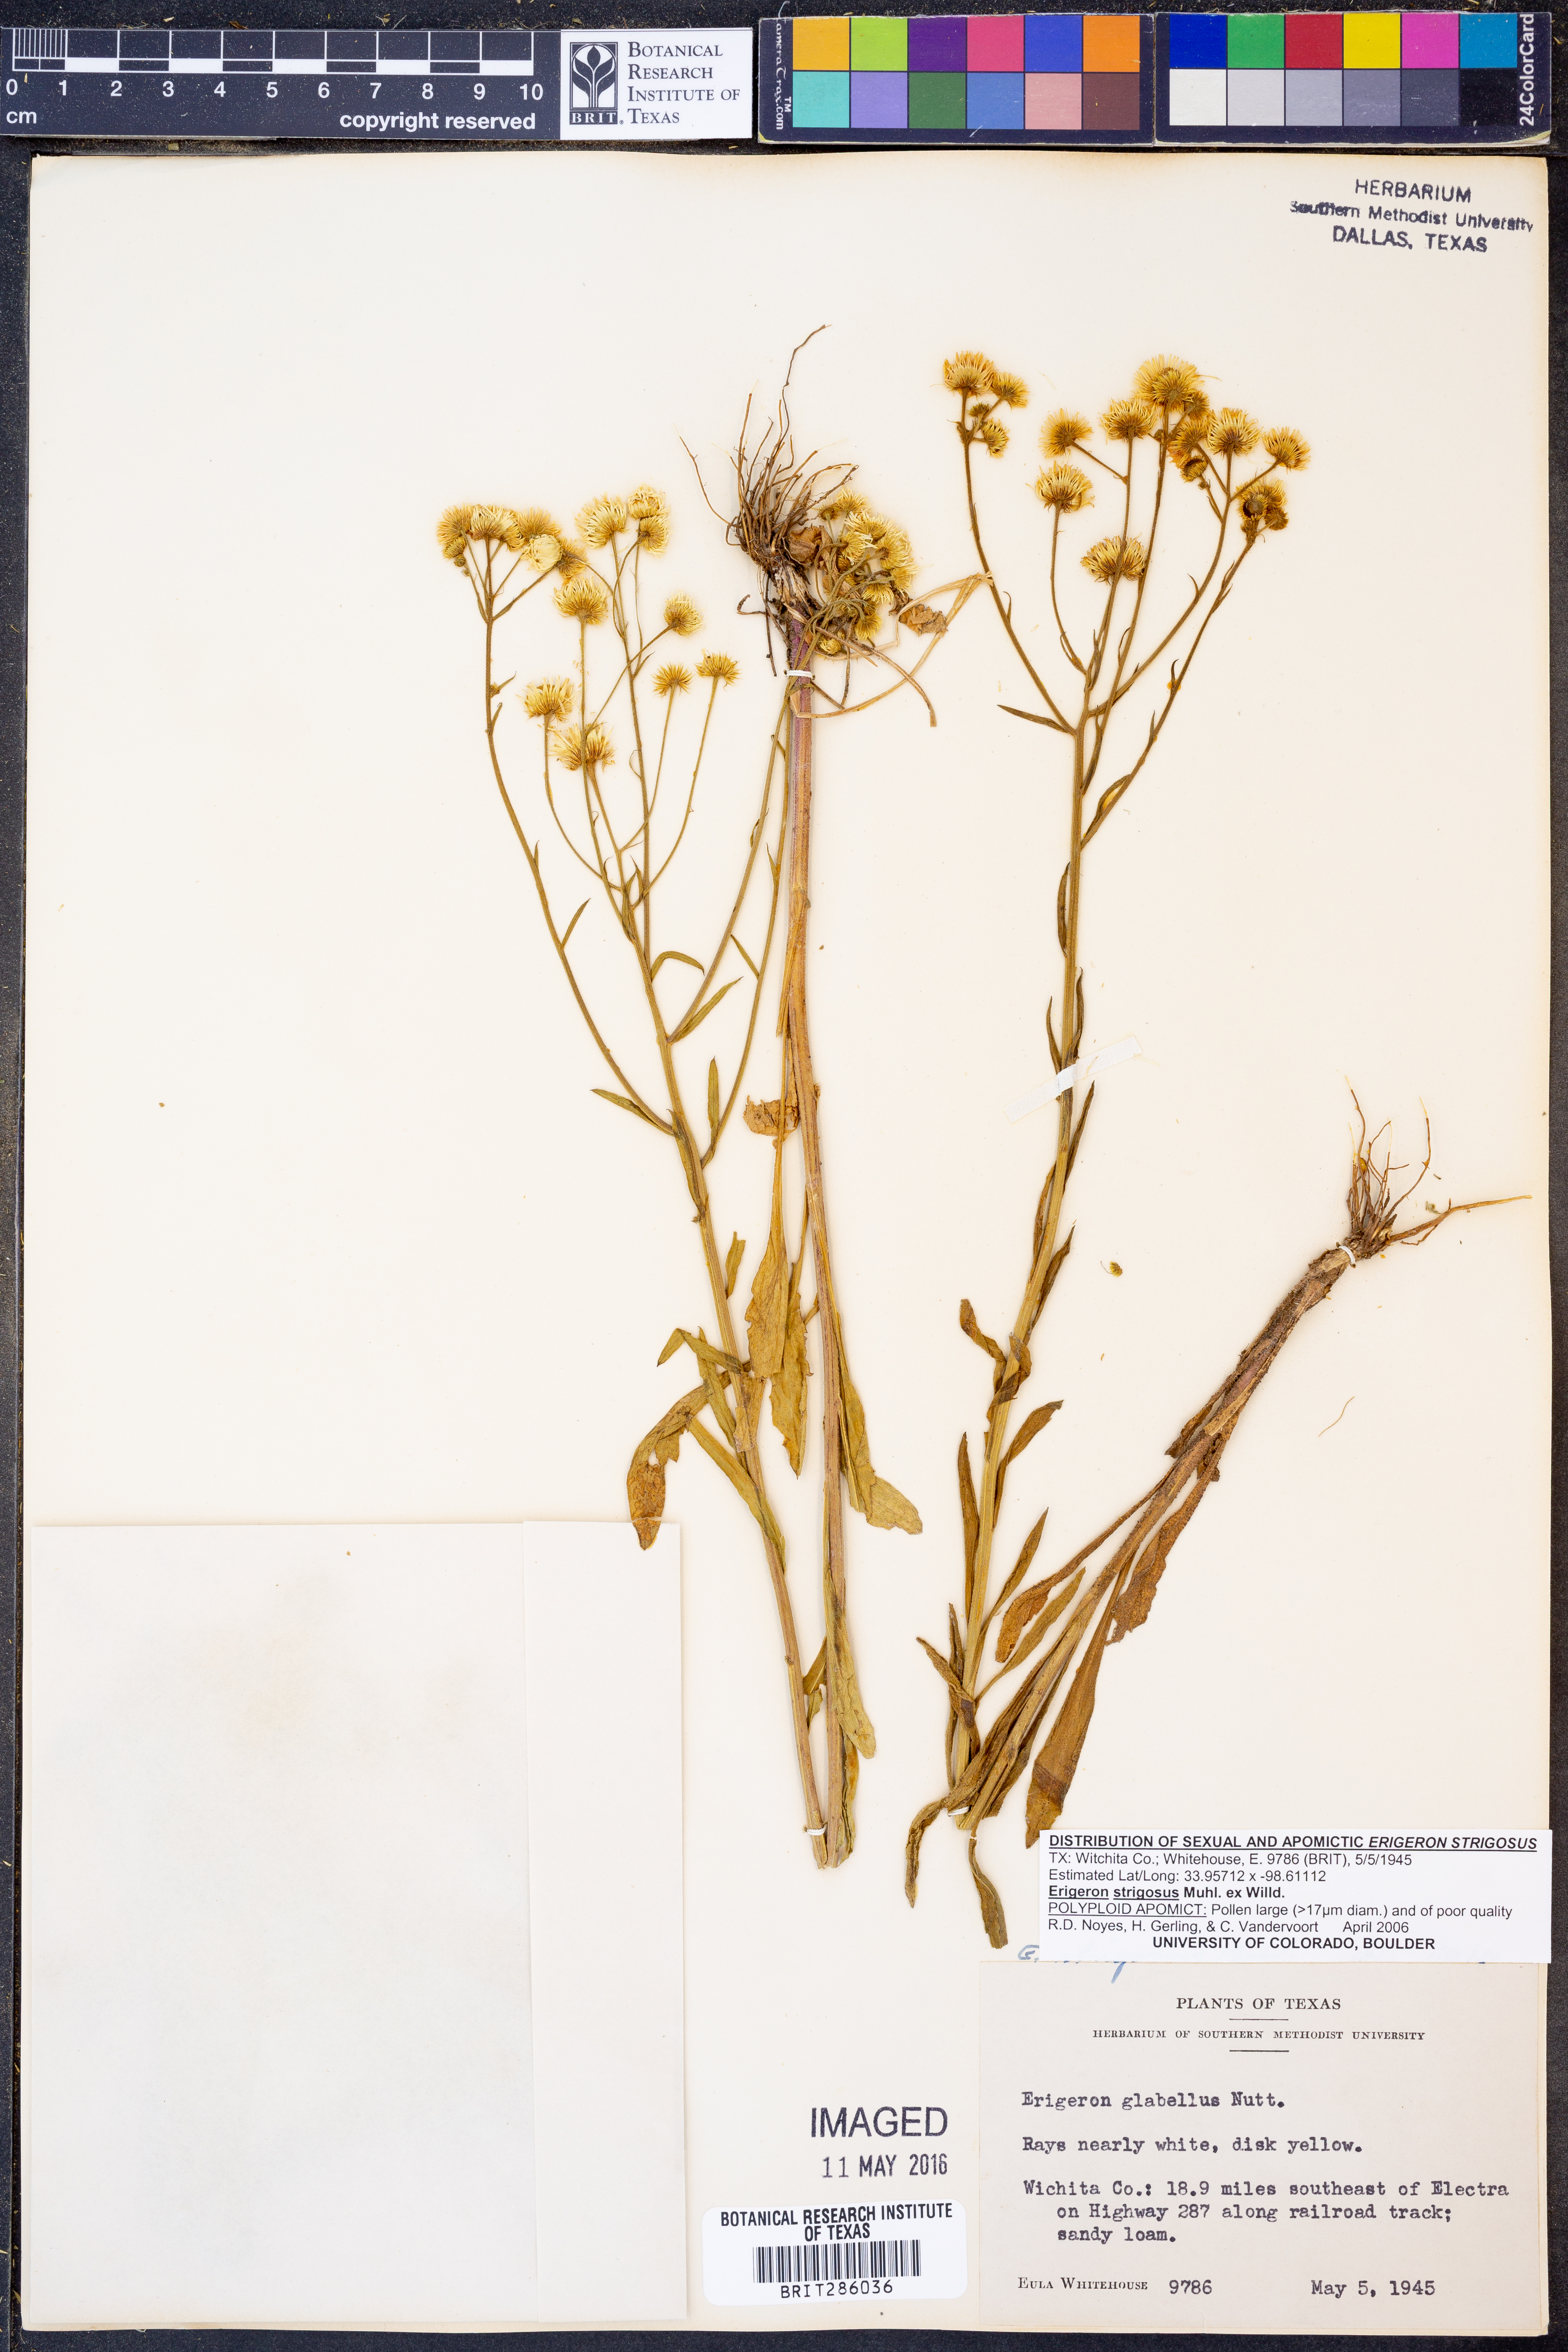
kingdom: Plantae
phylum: Tracheophyta
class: Magnoliopsida
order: Asterales
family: Asteraceae
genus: Erigeron
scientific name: Erigeron strigosus
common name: Common eastern fleabane
